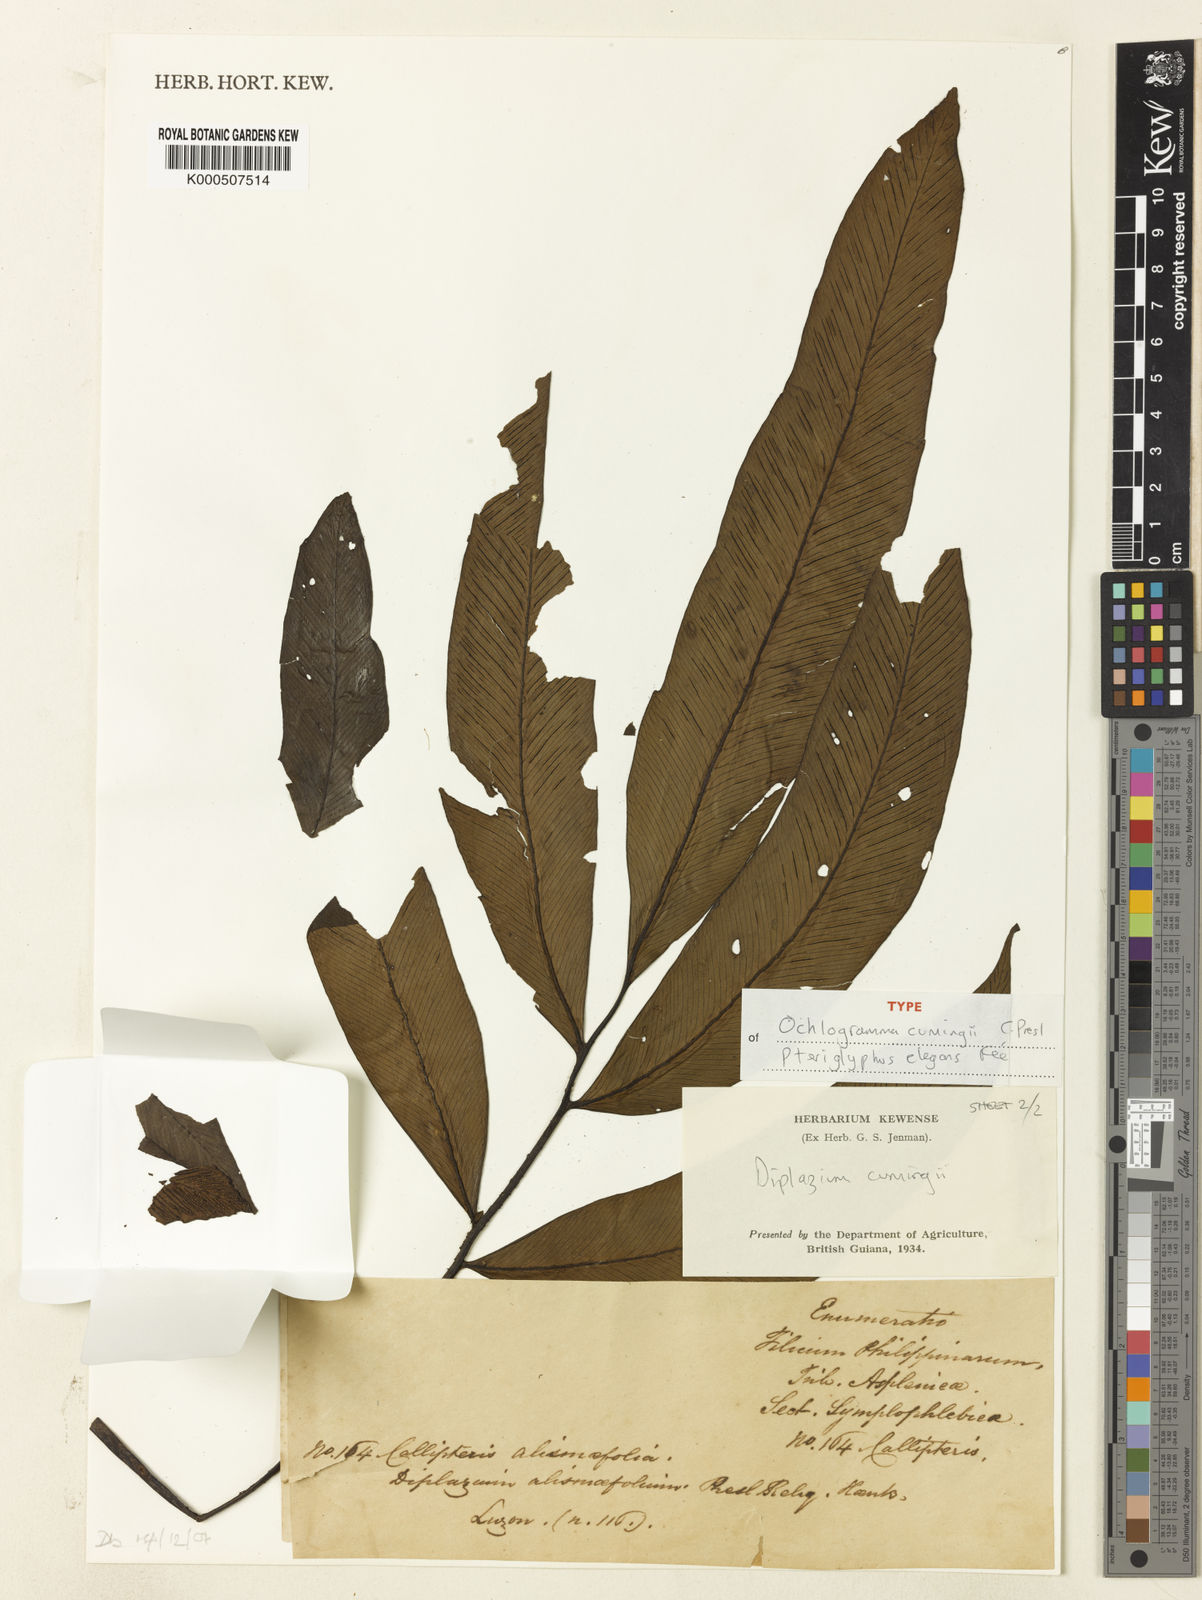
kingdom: Plantae
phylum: Tracheophyta
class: Polypodiopsida
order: Polypodiales
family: Athyriaceae
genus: Diplazium
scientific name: Diplazium cumingii
